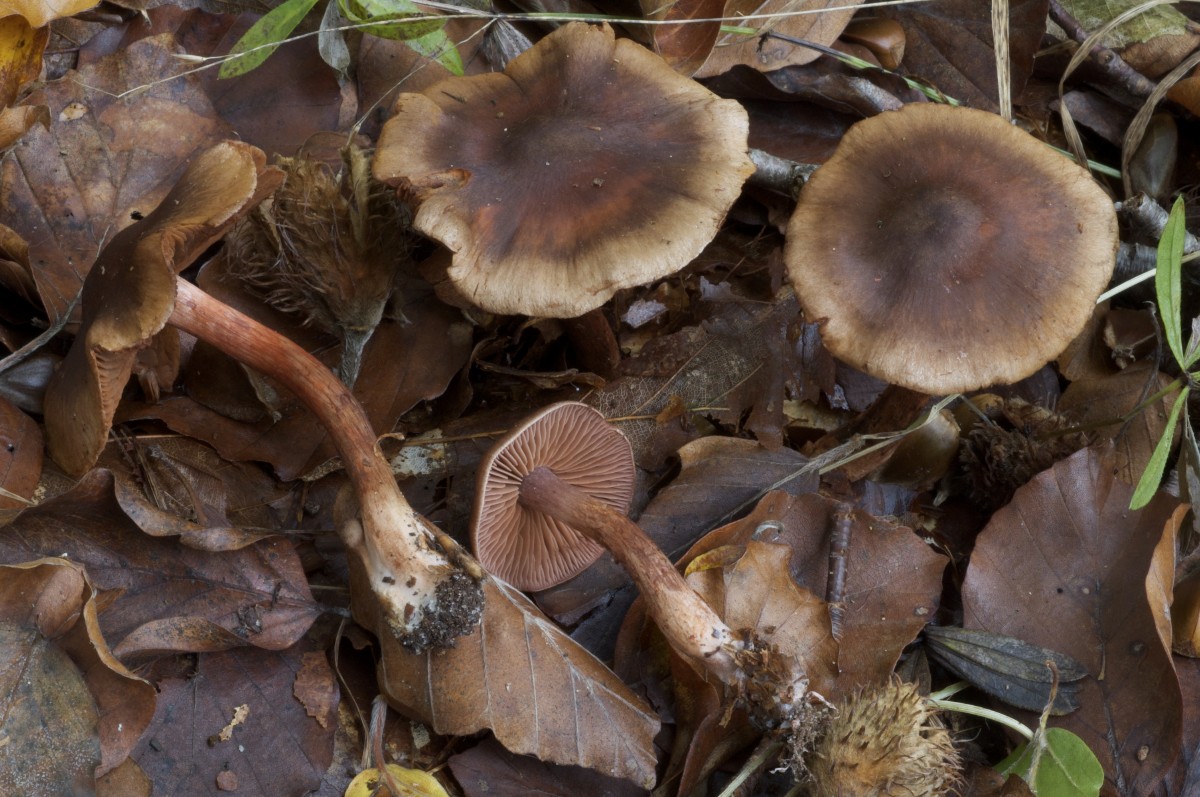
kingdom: Fungi
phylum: Basidiomycota
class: Agaricomycetes
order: Agaricales
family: Cortinariaceae
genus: Cortinarius
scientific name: Cortinarius danicus
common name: dansk slørhat
